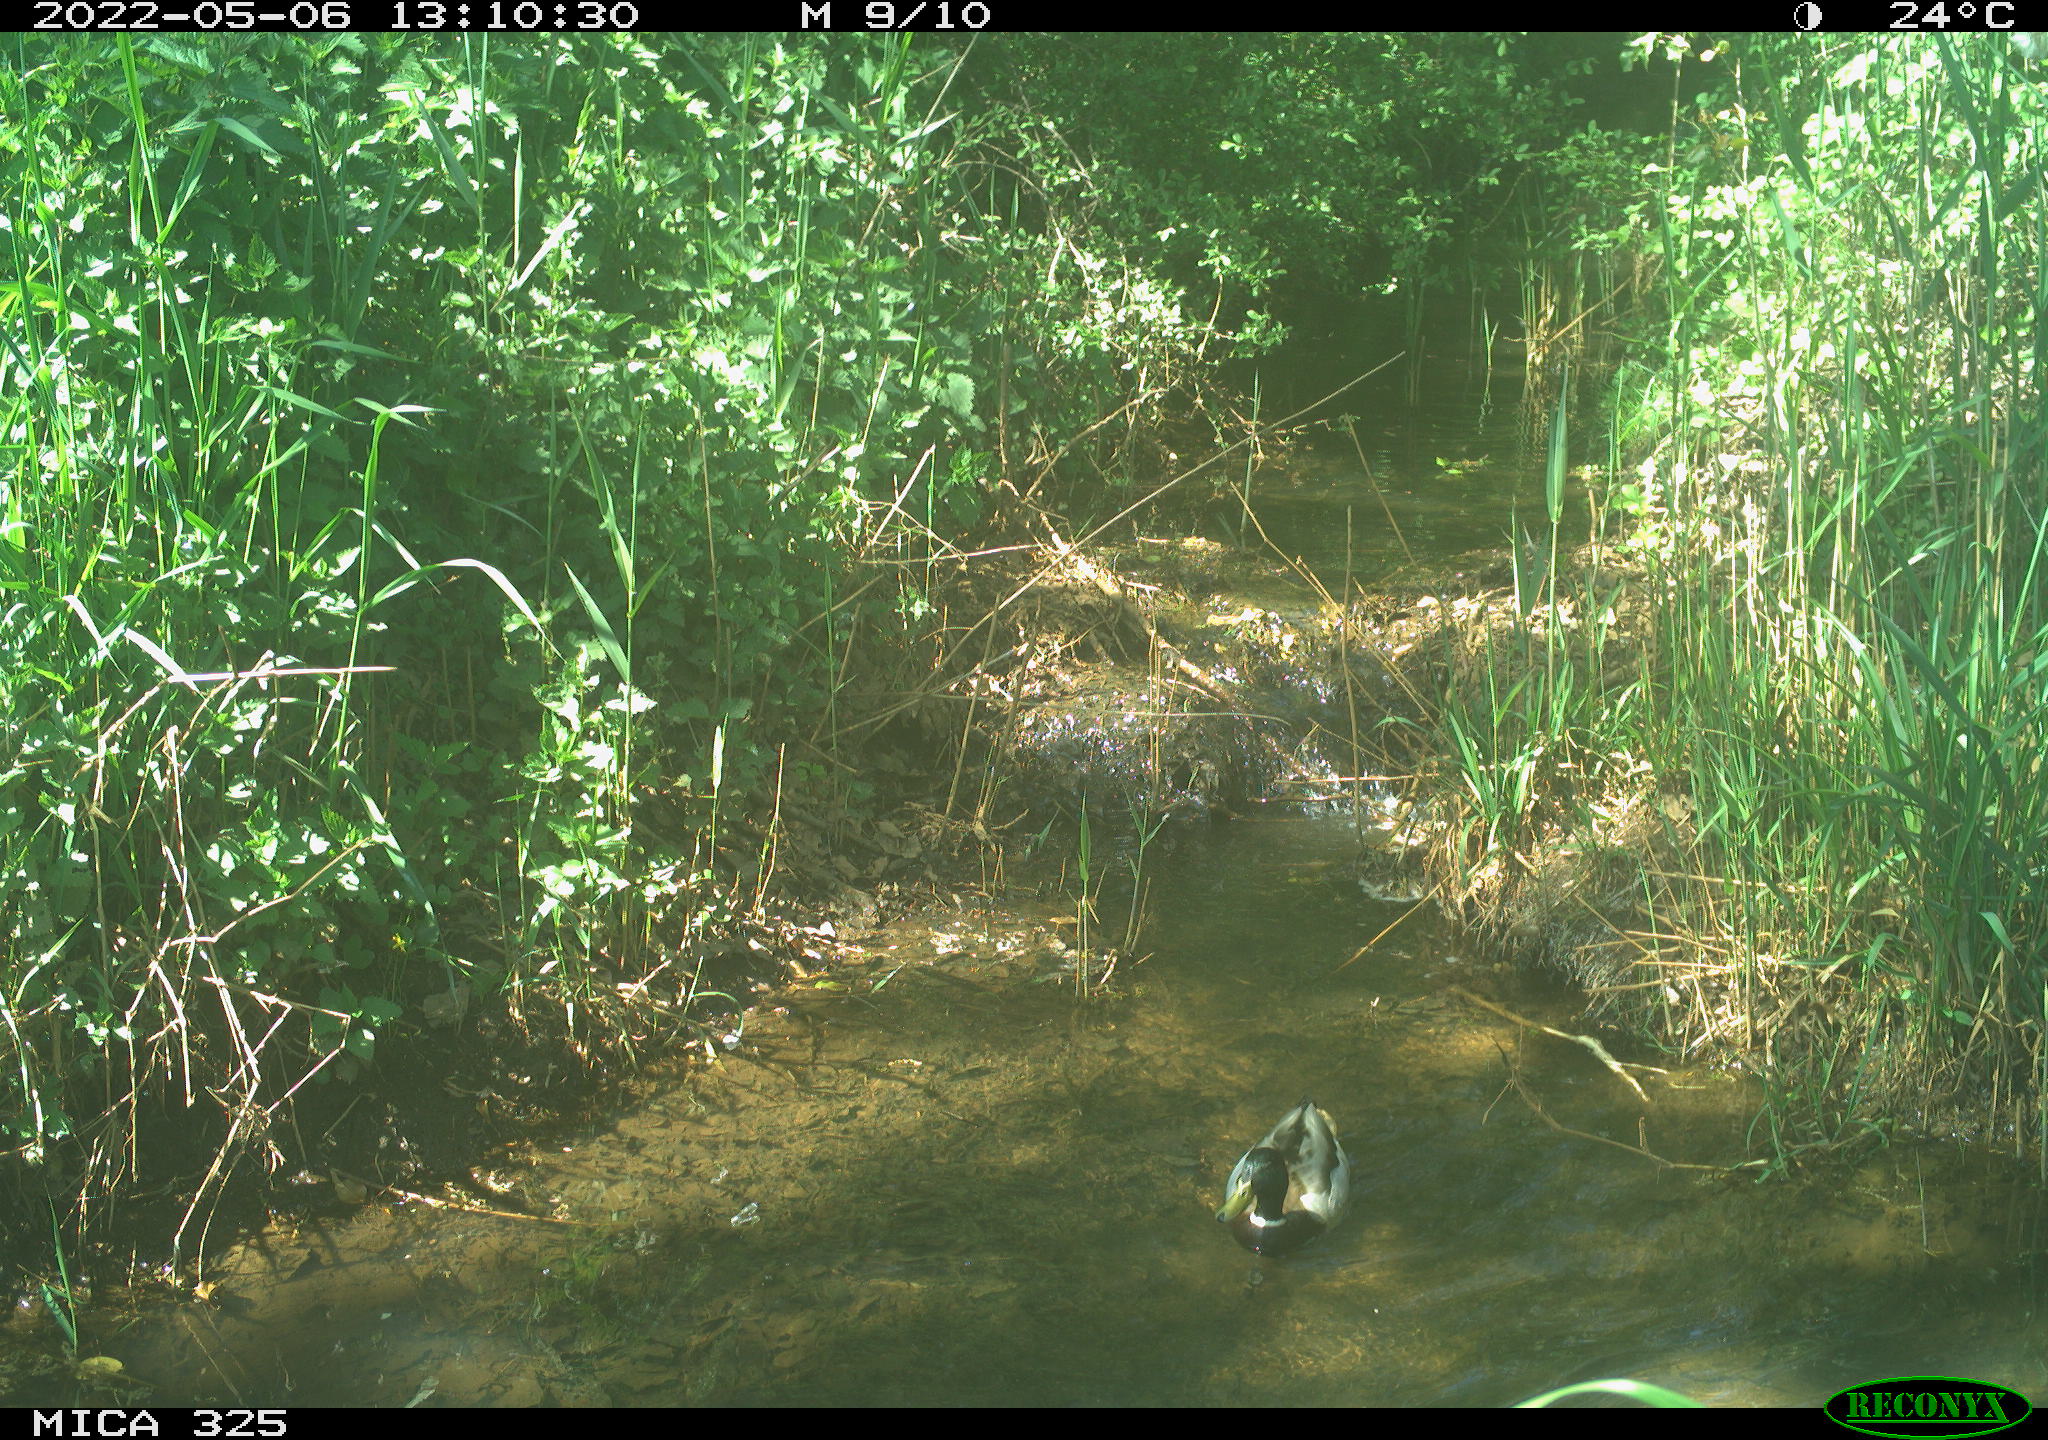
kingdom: Animalia
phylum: Chordata
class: Aves
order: Anseriformes
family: Anatidae
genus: Anas
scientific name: Anas platyrhynchos
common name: Mallard
